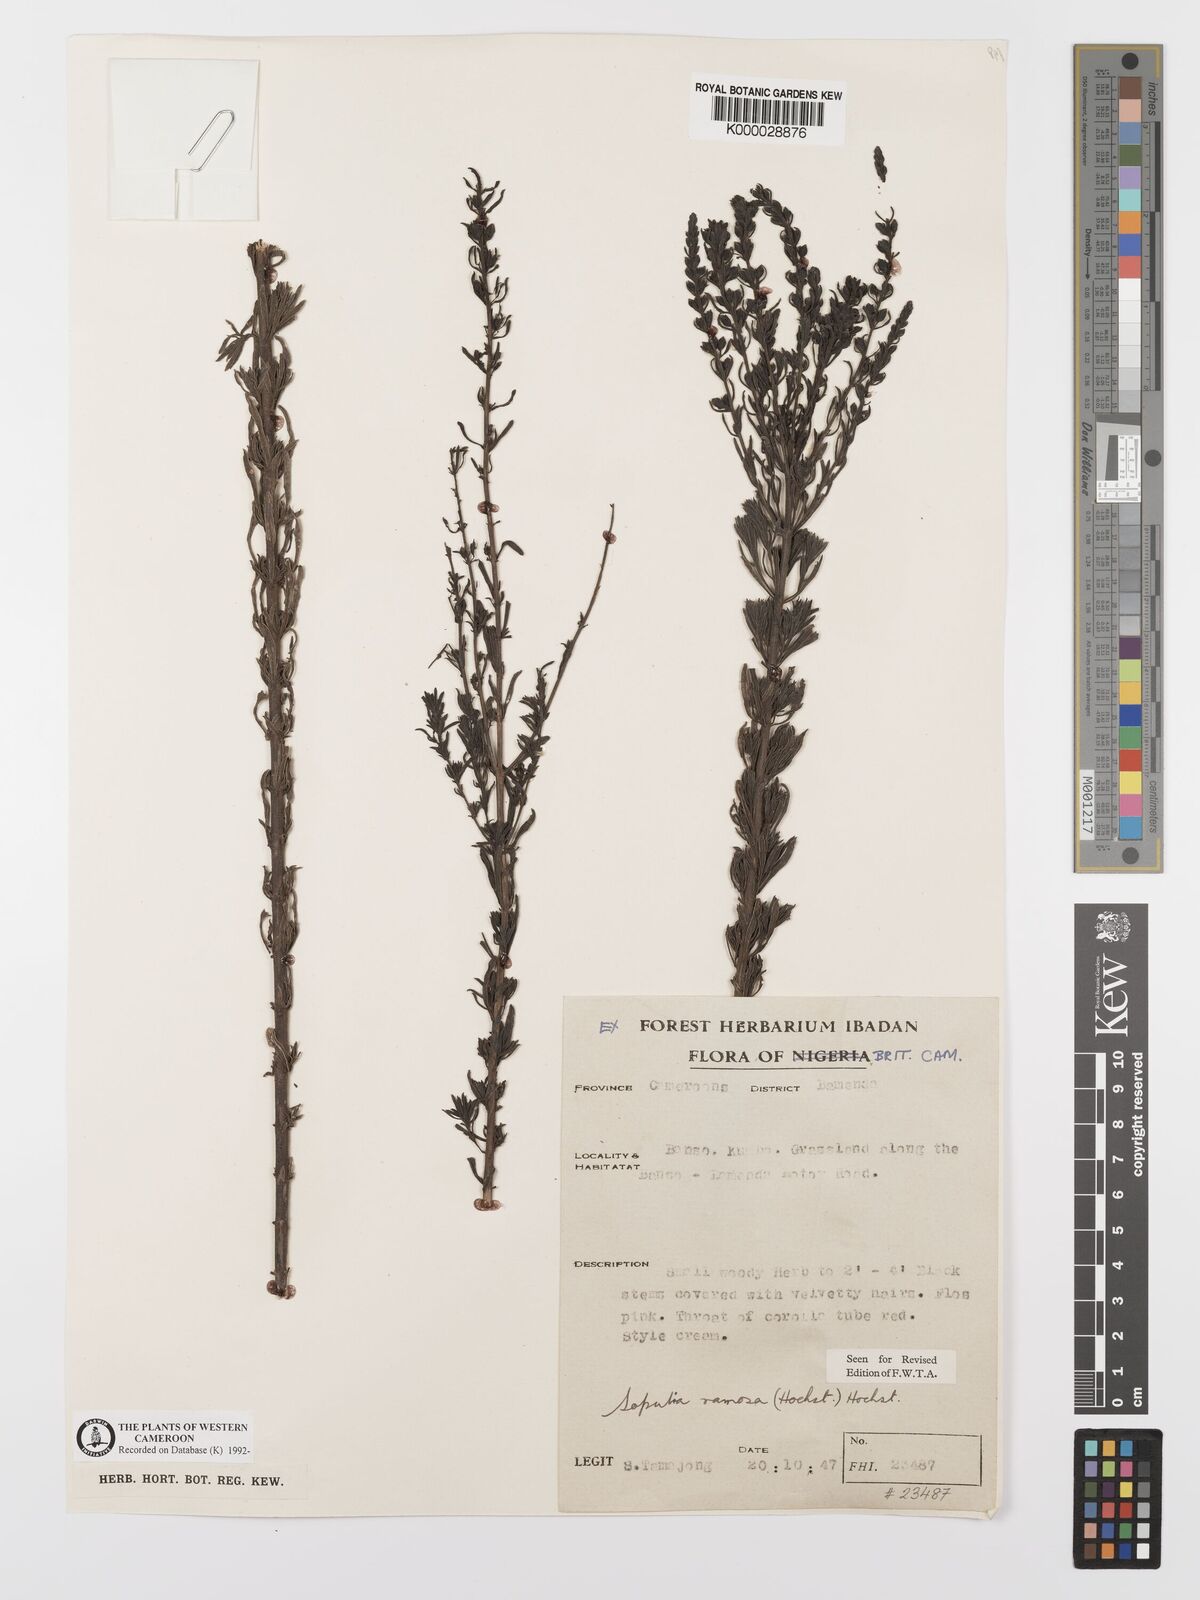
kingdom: Plantae
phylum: Tracheophyta
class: Magnoliopsida
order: Lamiales
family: Orobanchaceae
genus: Sopubia
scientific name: Sopubia ramosa
